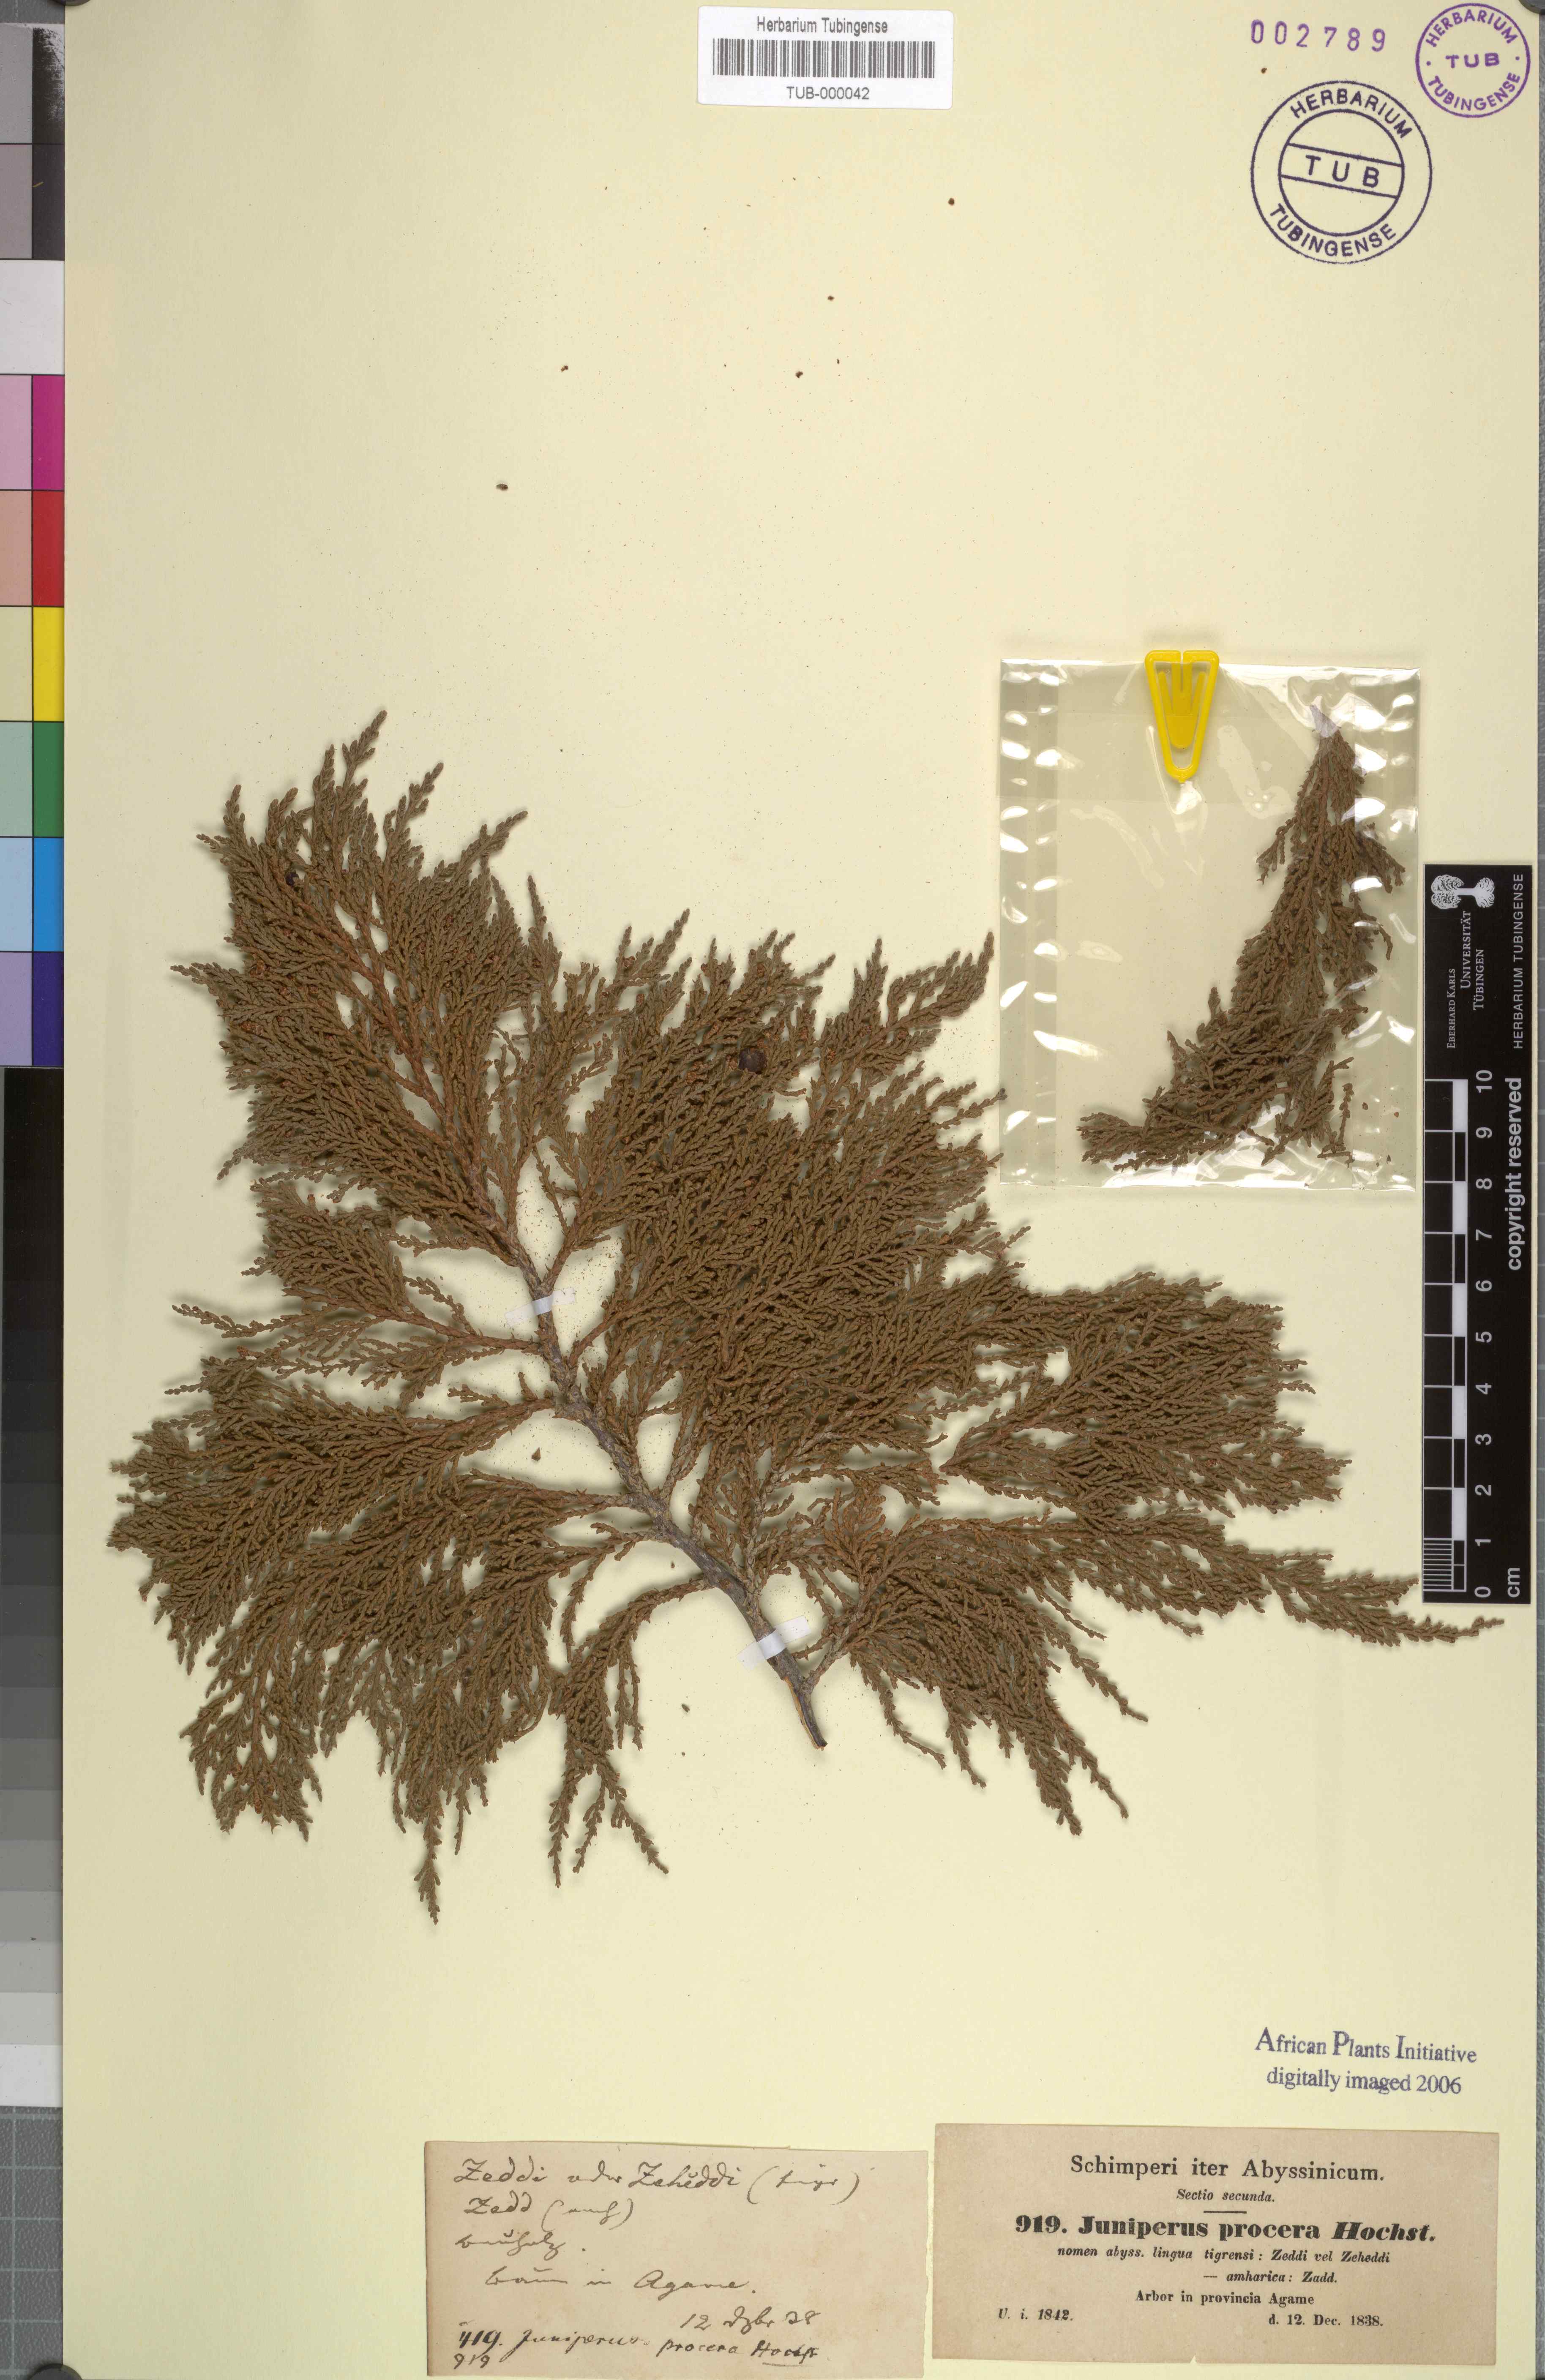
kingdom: Plantae
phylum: Tracheophyta
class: Pinopsida
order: Pinales
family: Cupressaceae
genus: Juniperus
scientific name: Juniperus procera
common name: African juniper
